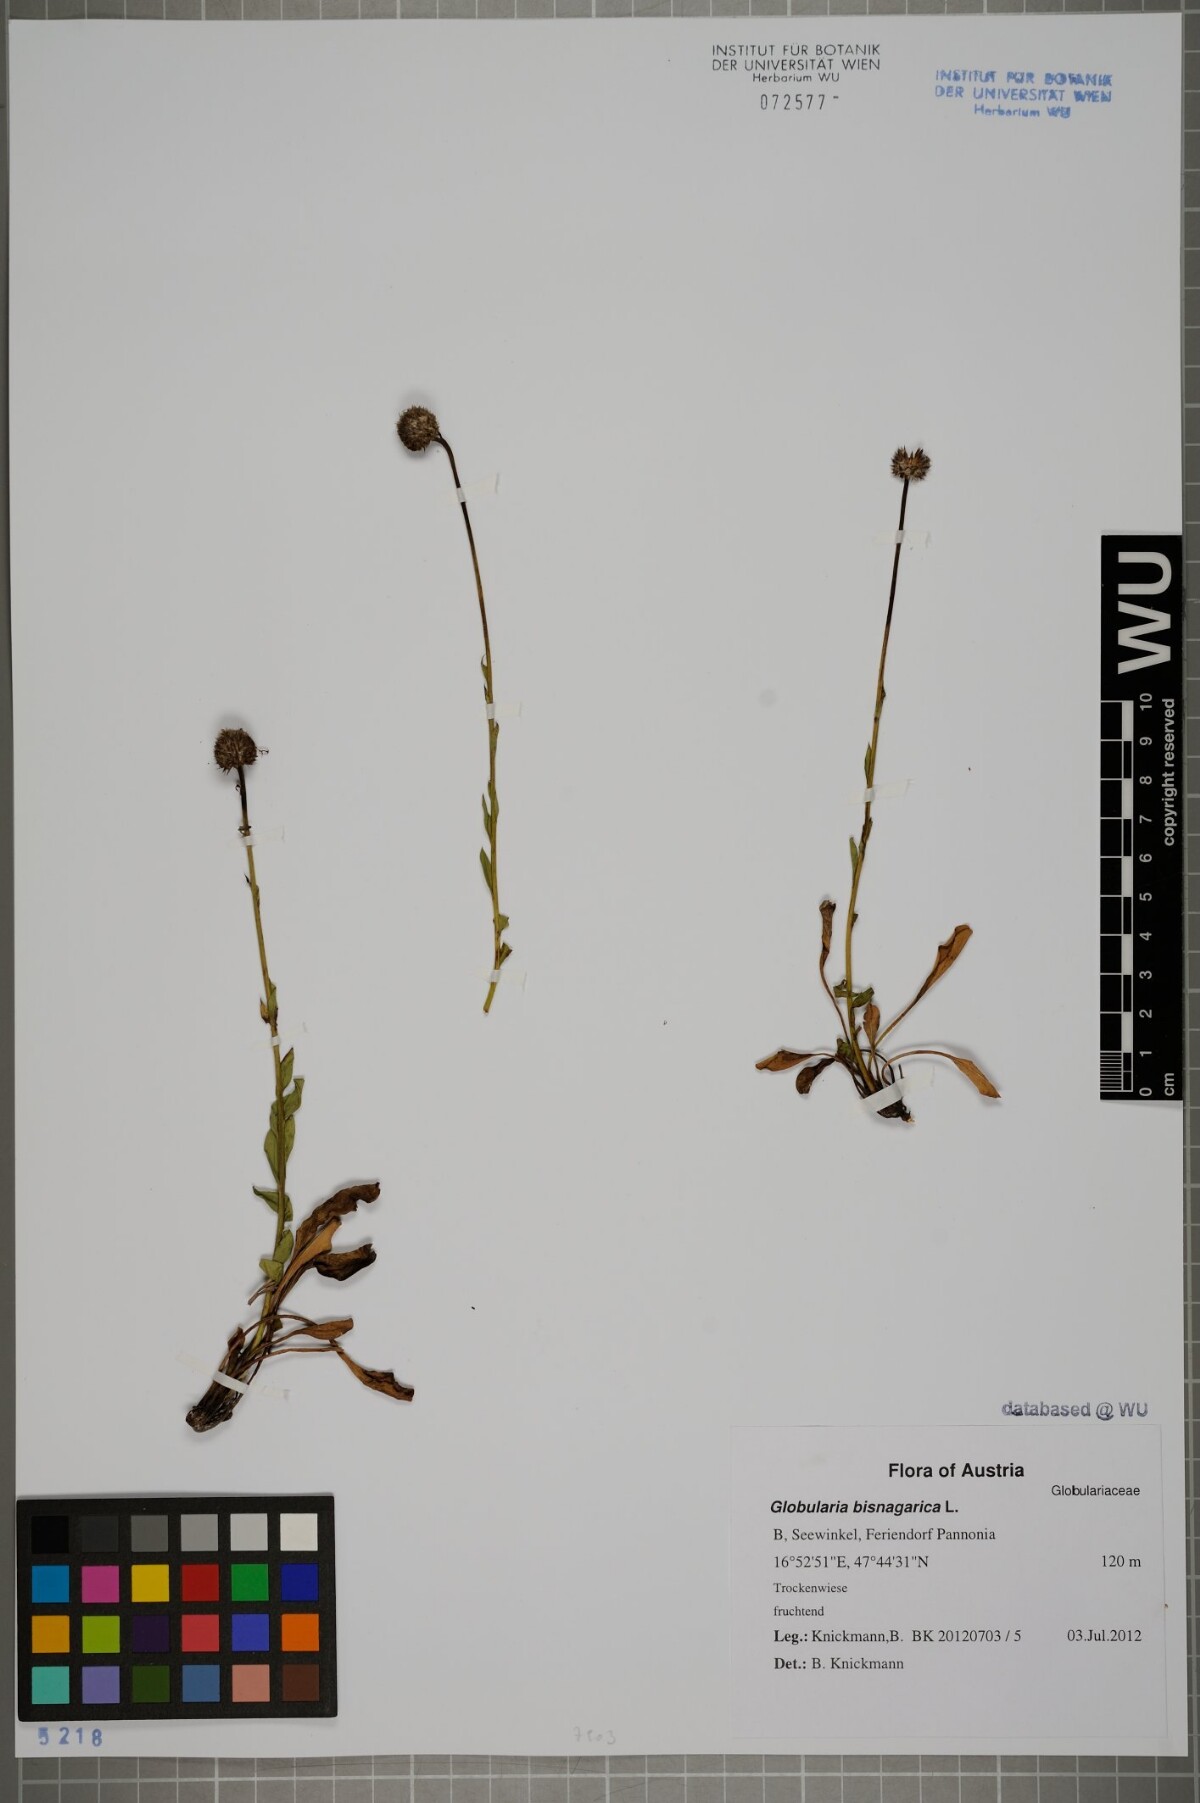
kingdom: Plantae
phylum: Tracheophyta
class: Magnoliopsida
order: Lamiales
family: Plantaginaceae
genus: Globularia
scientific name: Globularia bisnagarica
